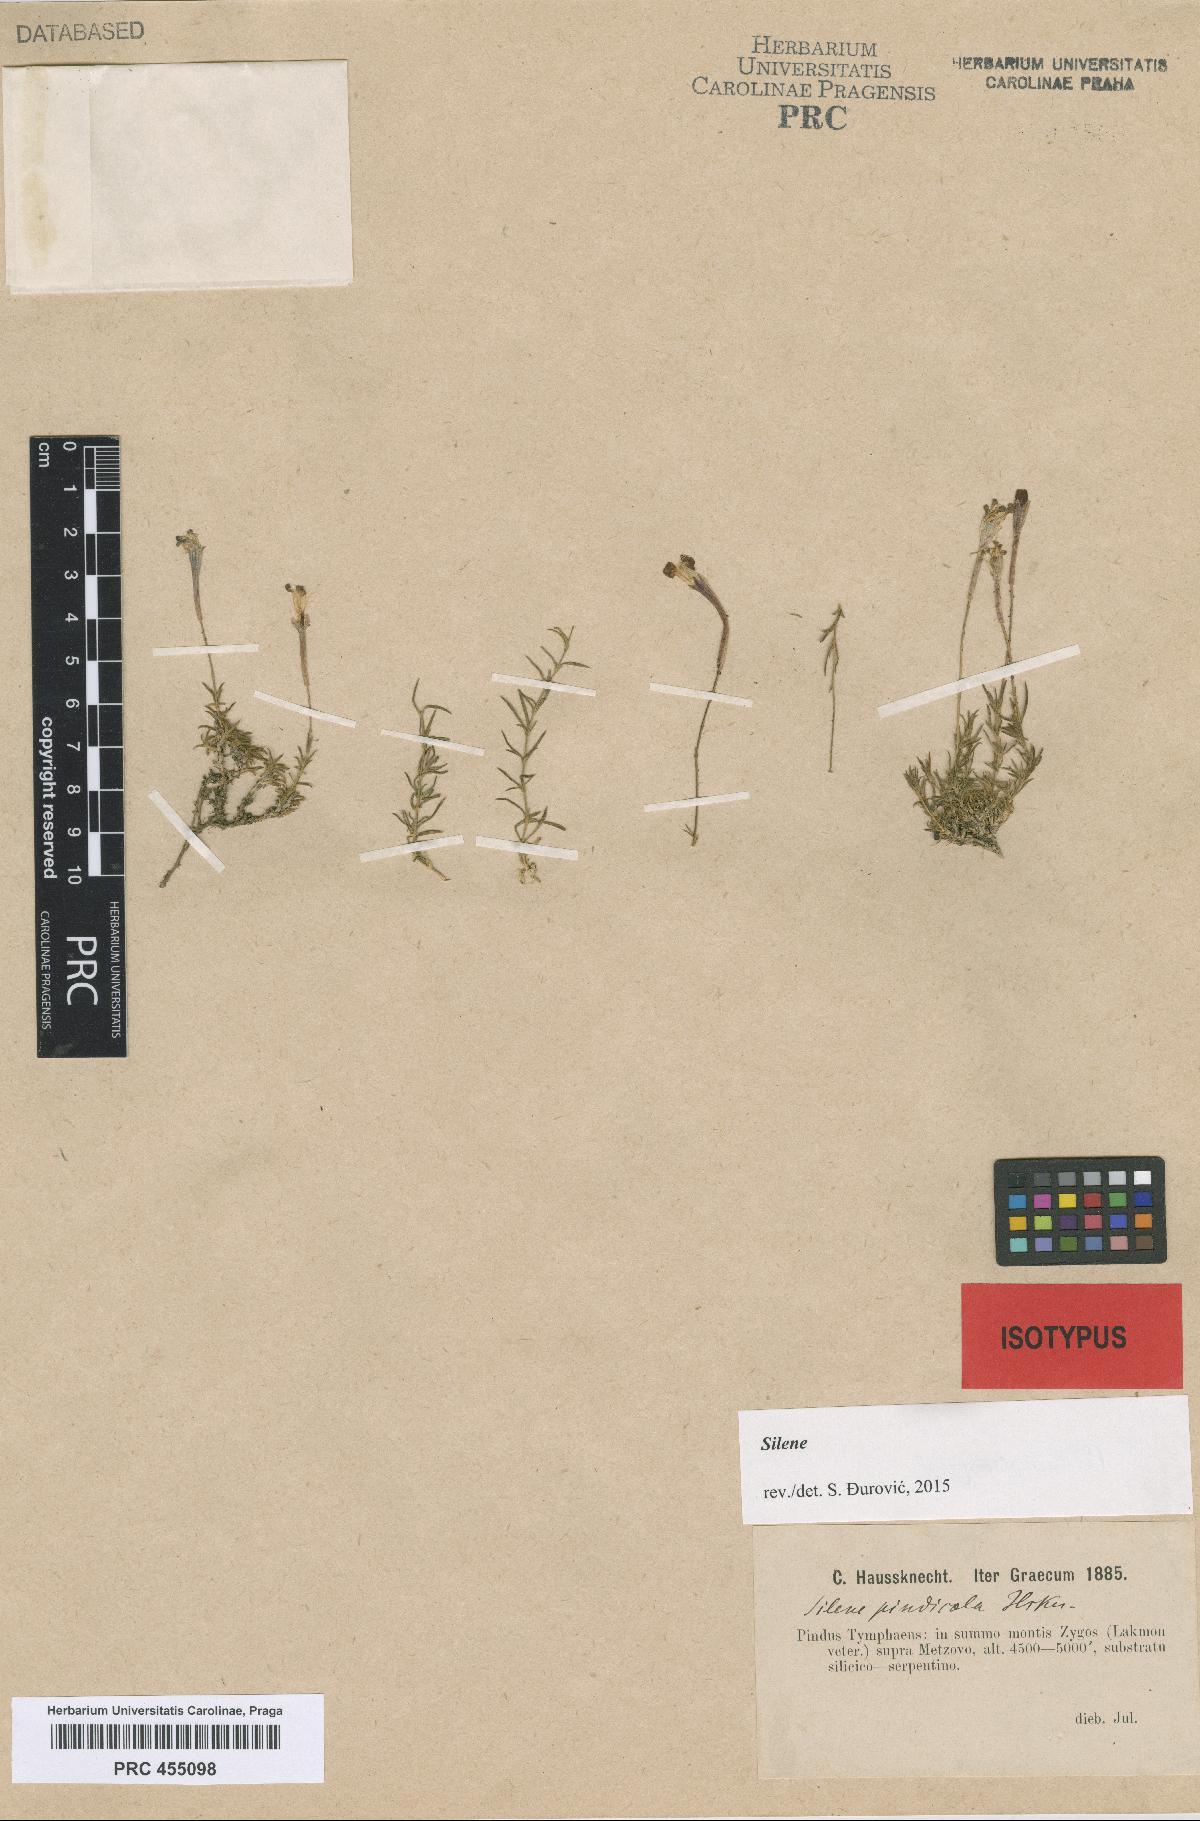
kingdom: Plantae
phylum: Tracheophyta
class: Magnoliopsida
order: Caryophyllales
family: Caryophyllaceae
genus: Silene
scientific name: Silene parnassica
